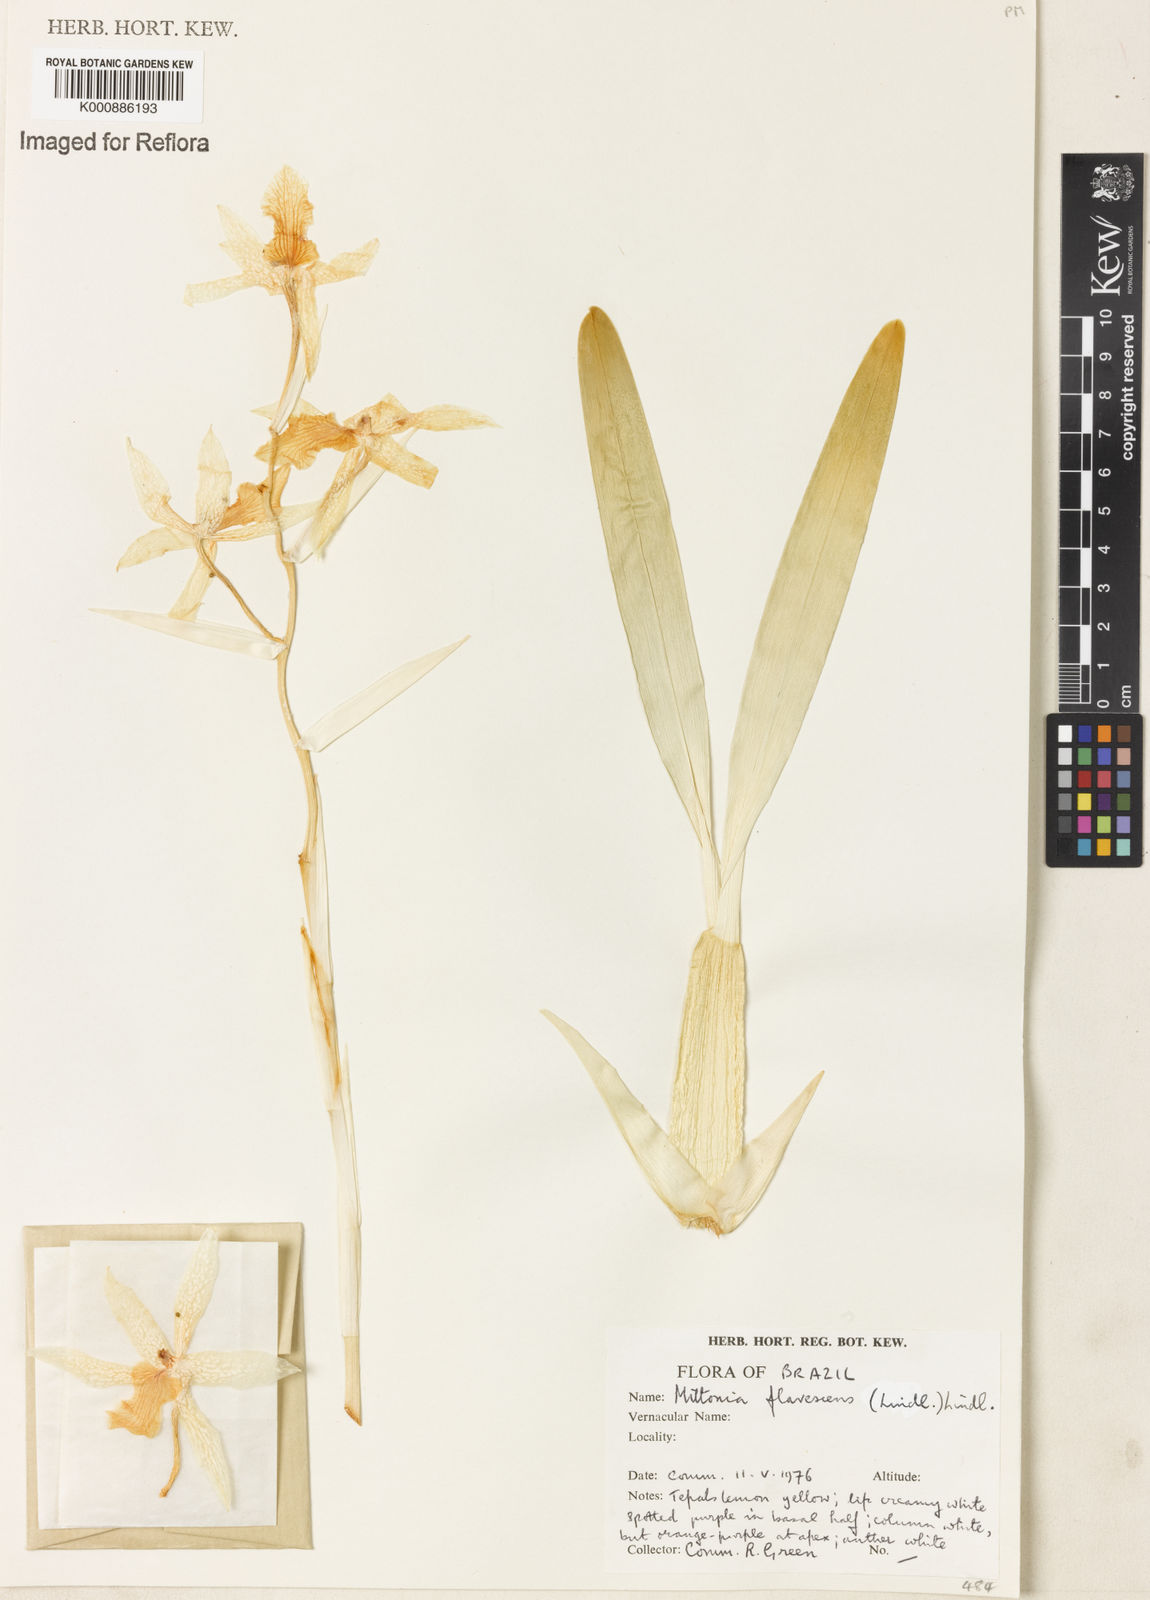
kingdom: Plantae
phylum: Tracheophyta
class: Liliopsida
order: Asparagales
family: Orchidaceae
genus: Miltonia
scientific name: Miltonia flavescens
